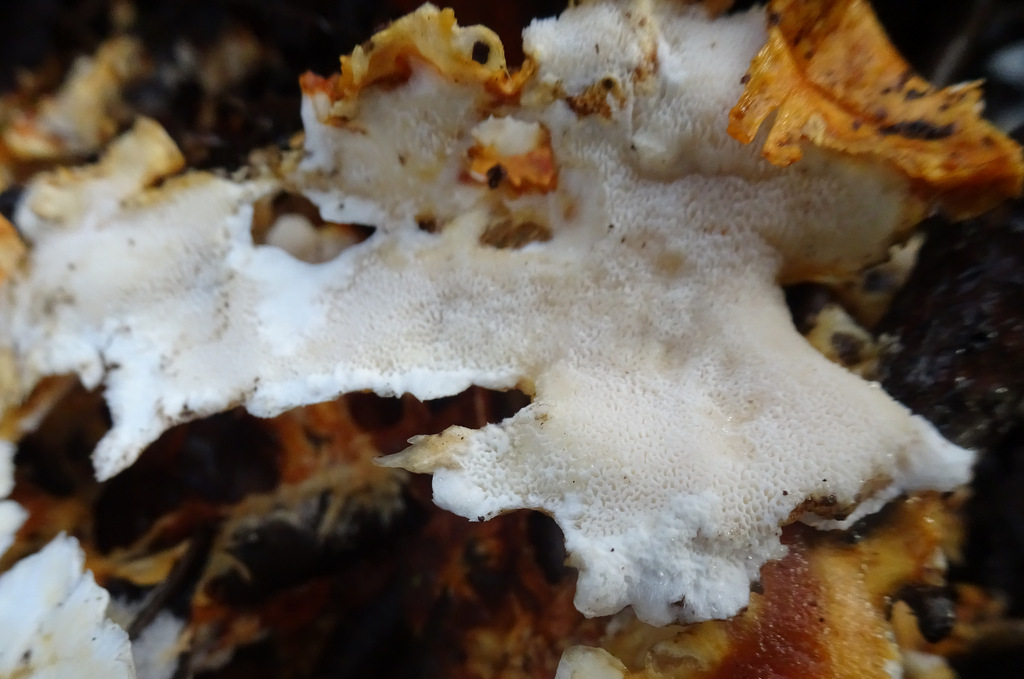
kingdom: Fungi
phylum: Basidiomycota
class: Agaricomycetes
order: Polyporales
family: Steccherinaceae
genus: Loweomyces
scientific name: Loweomyces wynneae
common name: krybende blødporesvamp
